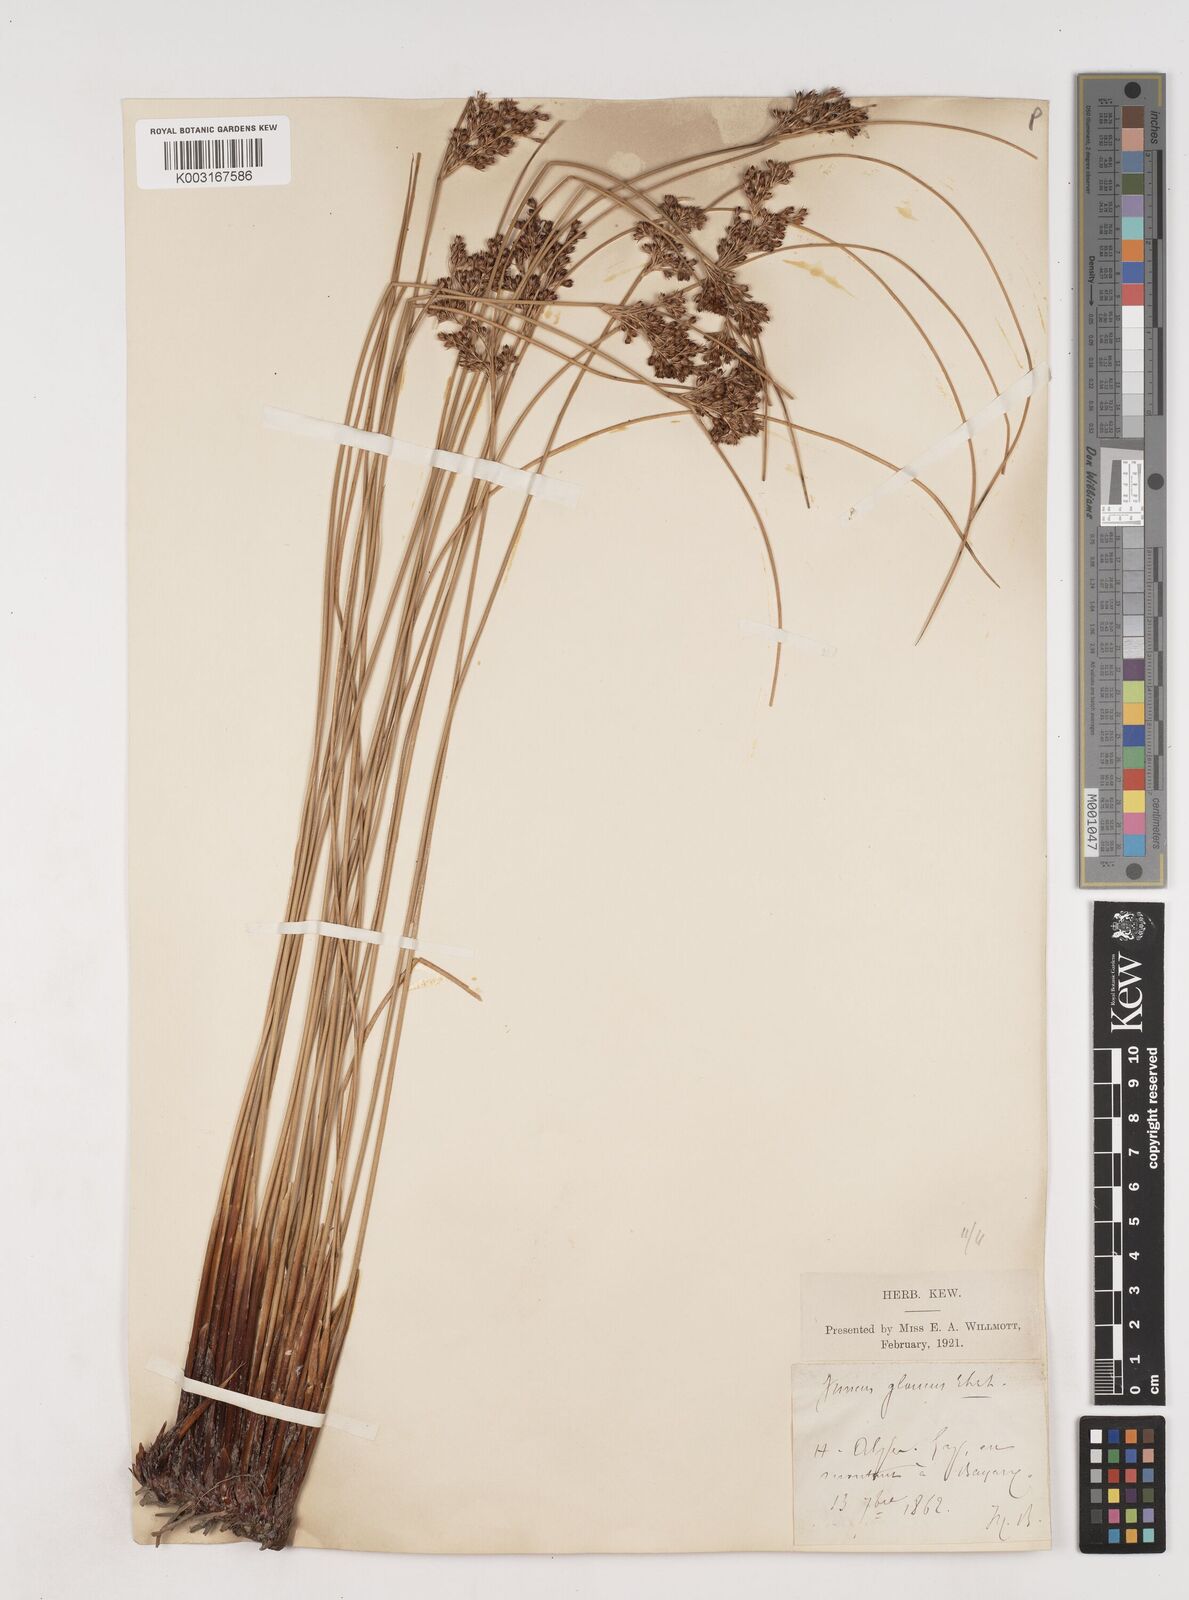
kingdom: Plantae
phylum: Tracheophyta
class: Liliopsida
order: Poales
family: Juncaceae
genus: Juncus
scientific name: Juncus inflexus
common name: Hard rush
